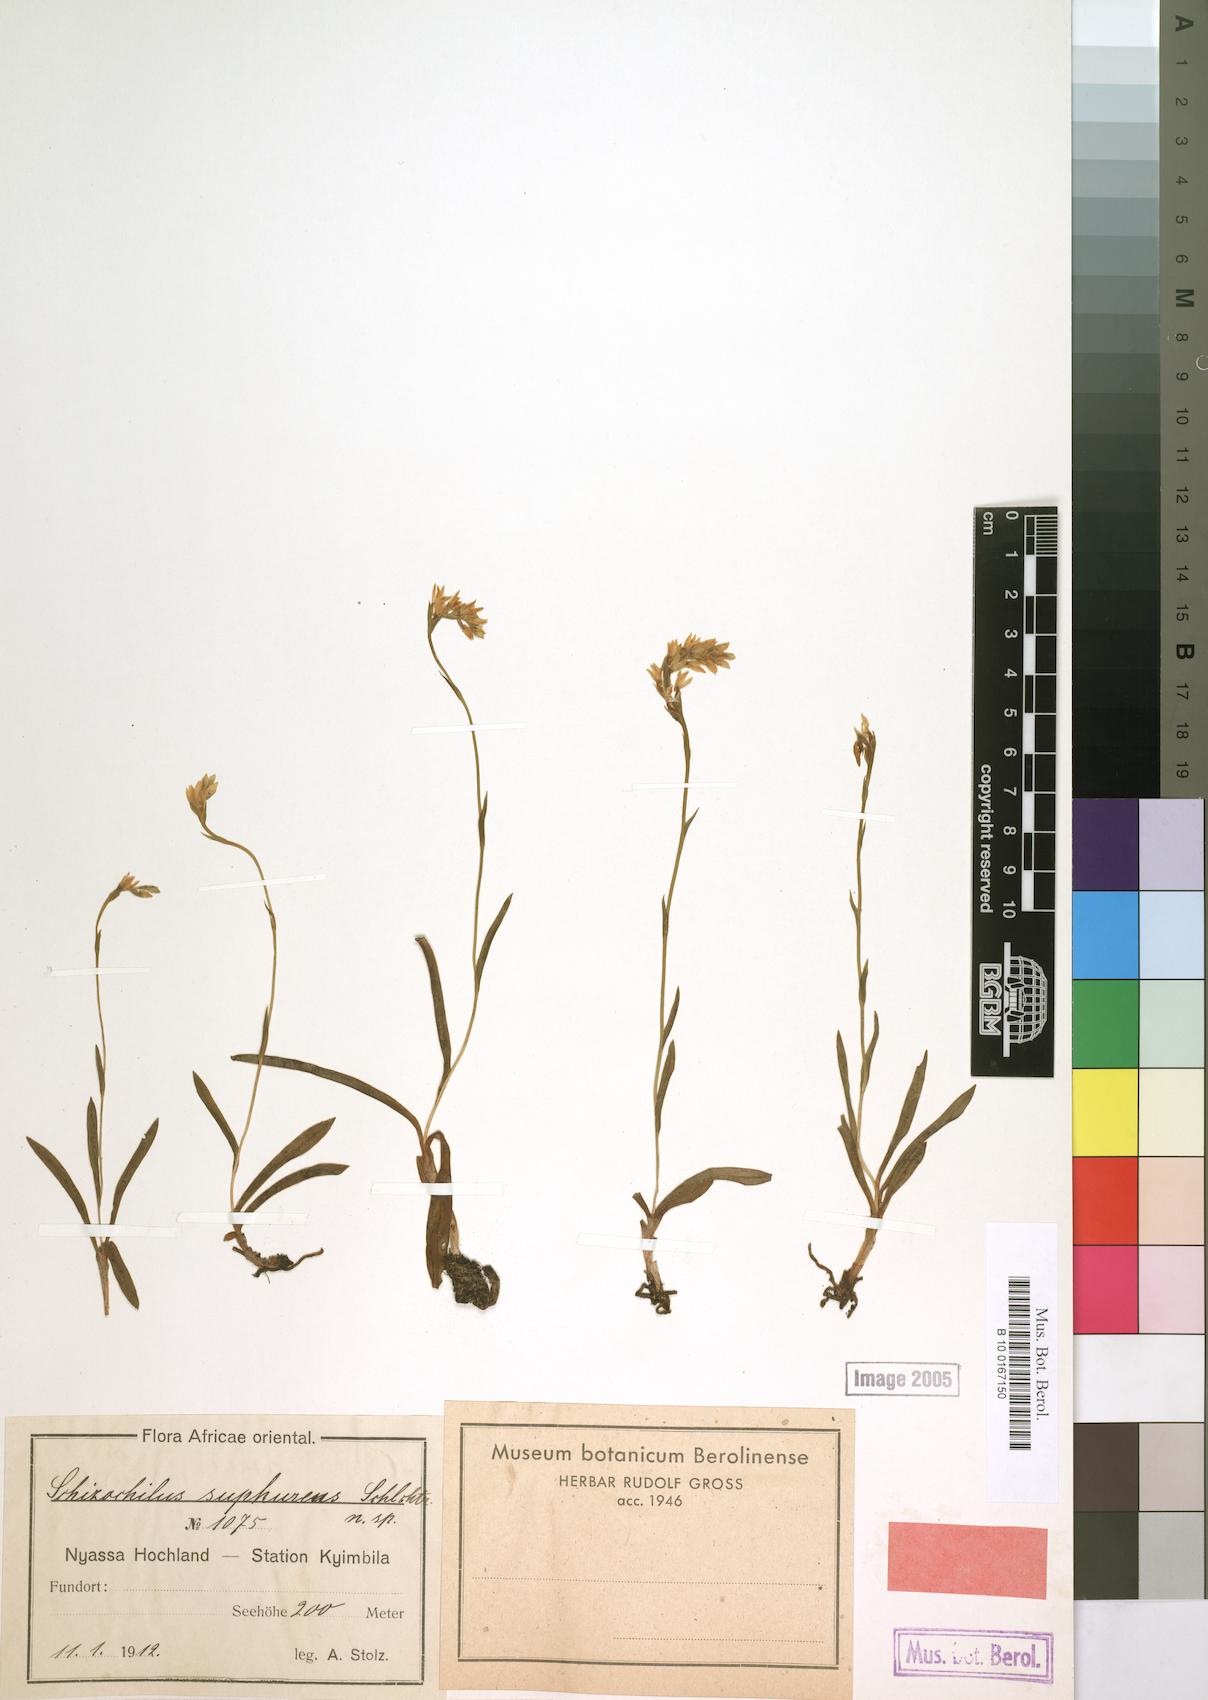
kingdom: Plantae
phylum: Tracheophyta
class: Liliopsida
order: Asparagales
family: Orchidaceae
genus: Schizochilus
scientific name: Schizochilus sulphureus
